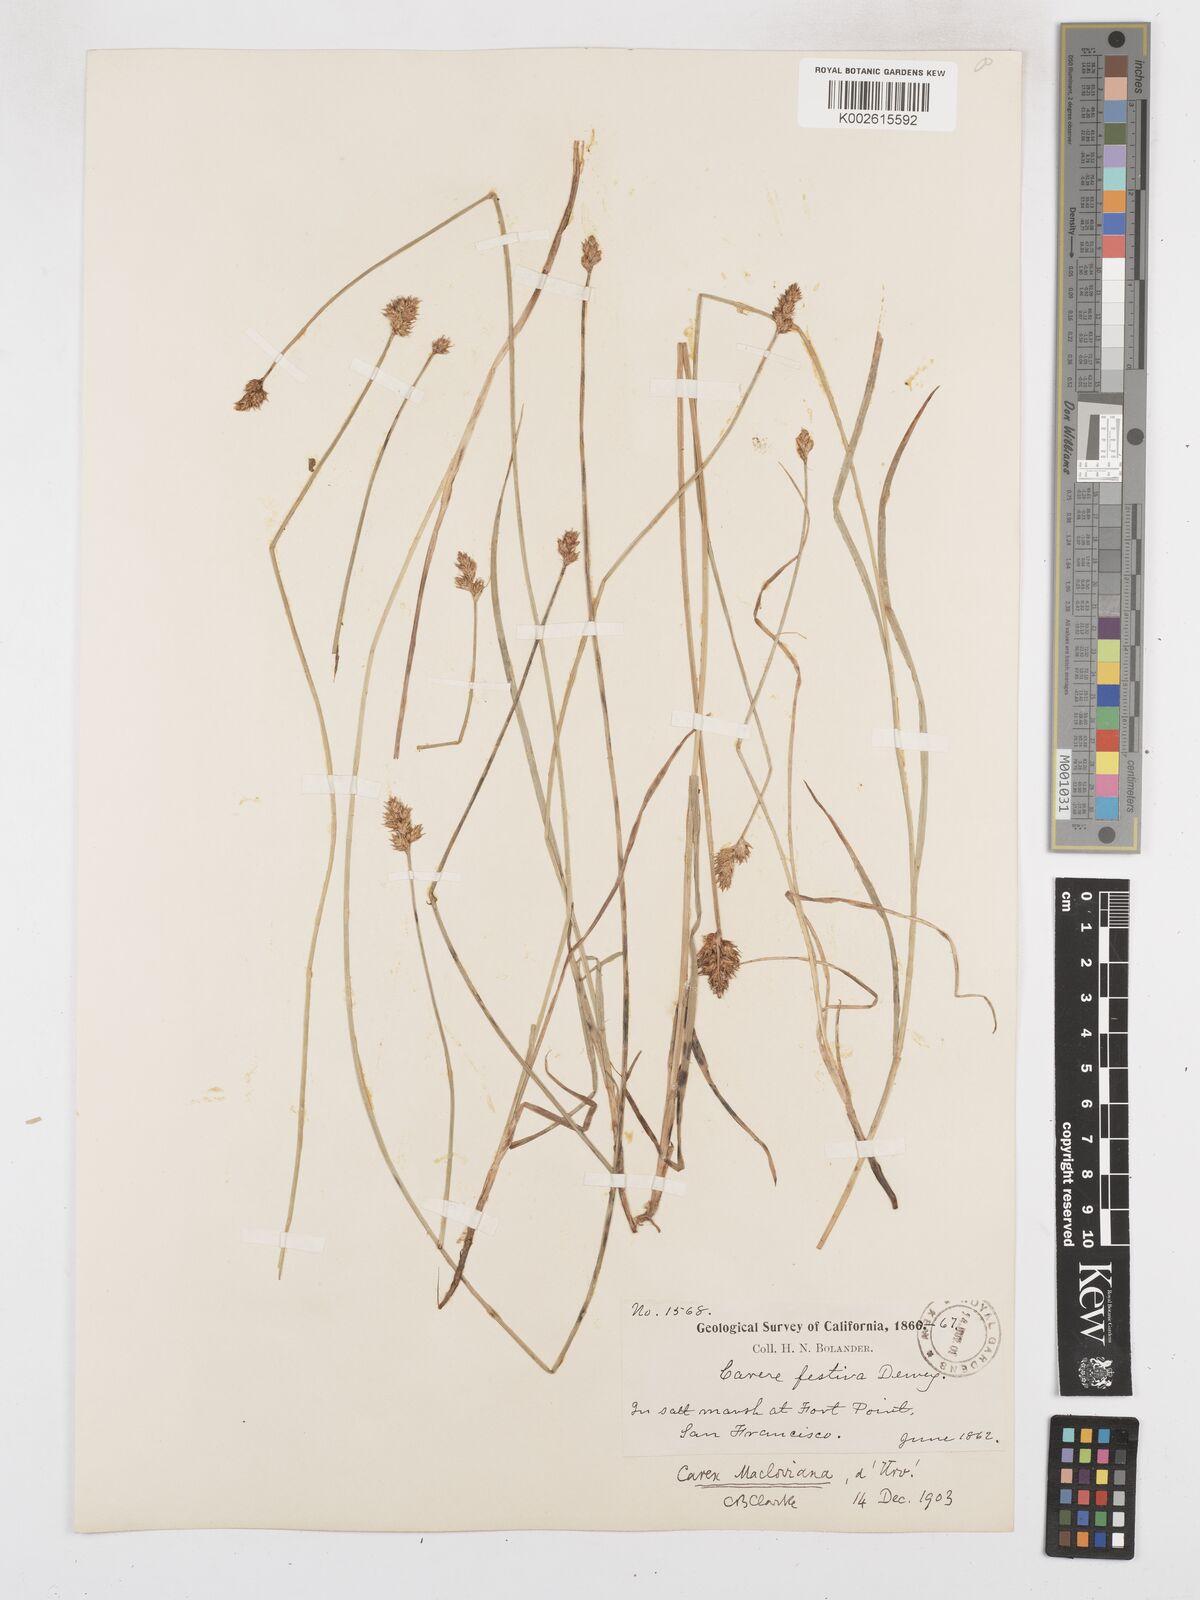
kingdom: Plantae
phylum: Tracheophyta
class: Liliopsida
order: Poales
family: Cyperaceae
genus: Carex
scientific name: Carex macloviana
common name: Falkland island sedge
